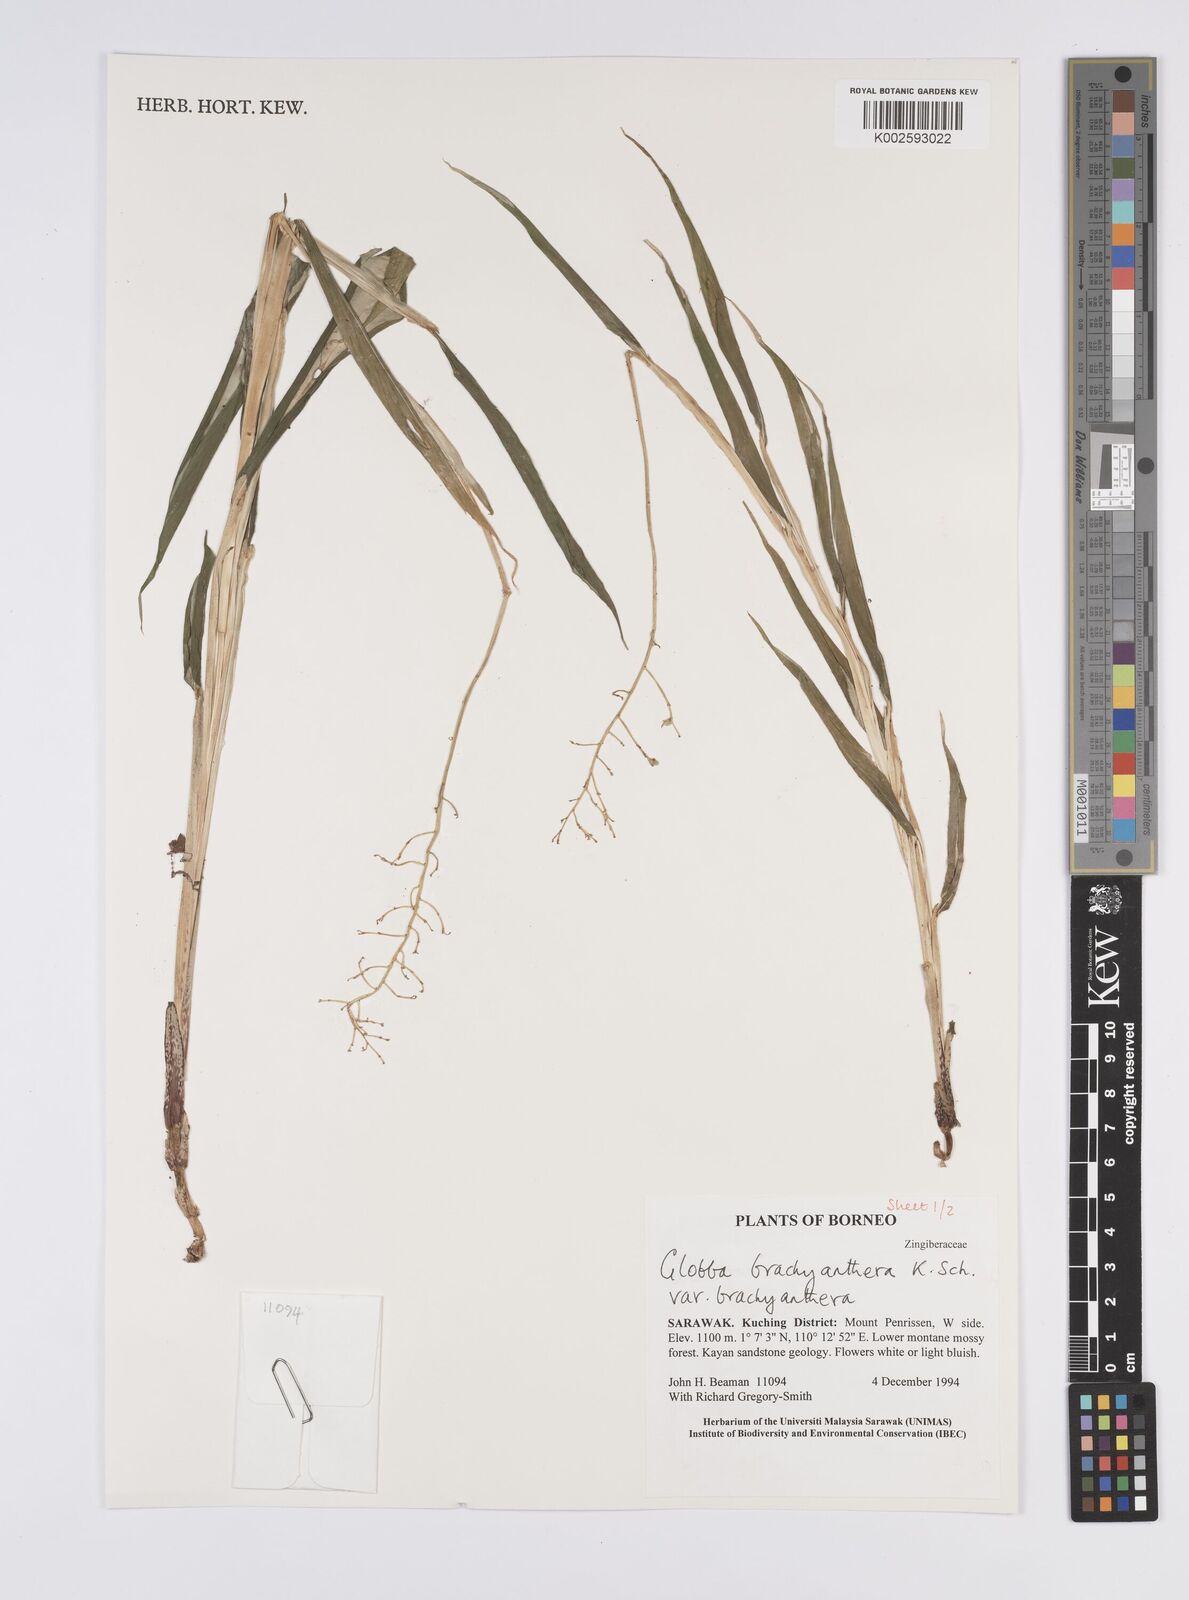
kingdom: Plantae
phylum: Tracheophyta
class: Liliopsida
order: Zingiberales
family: Zingiberaceae
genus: Globba
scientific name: Globba brachyanthera
